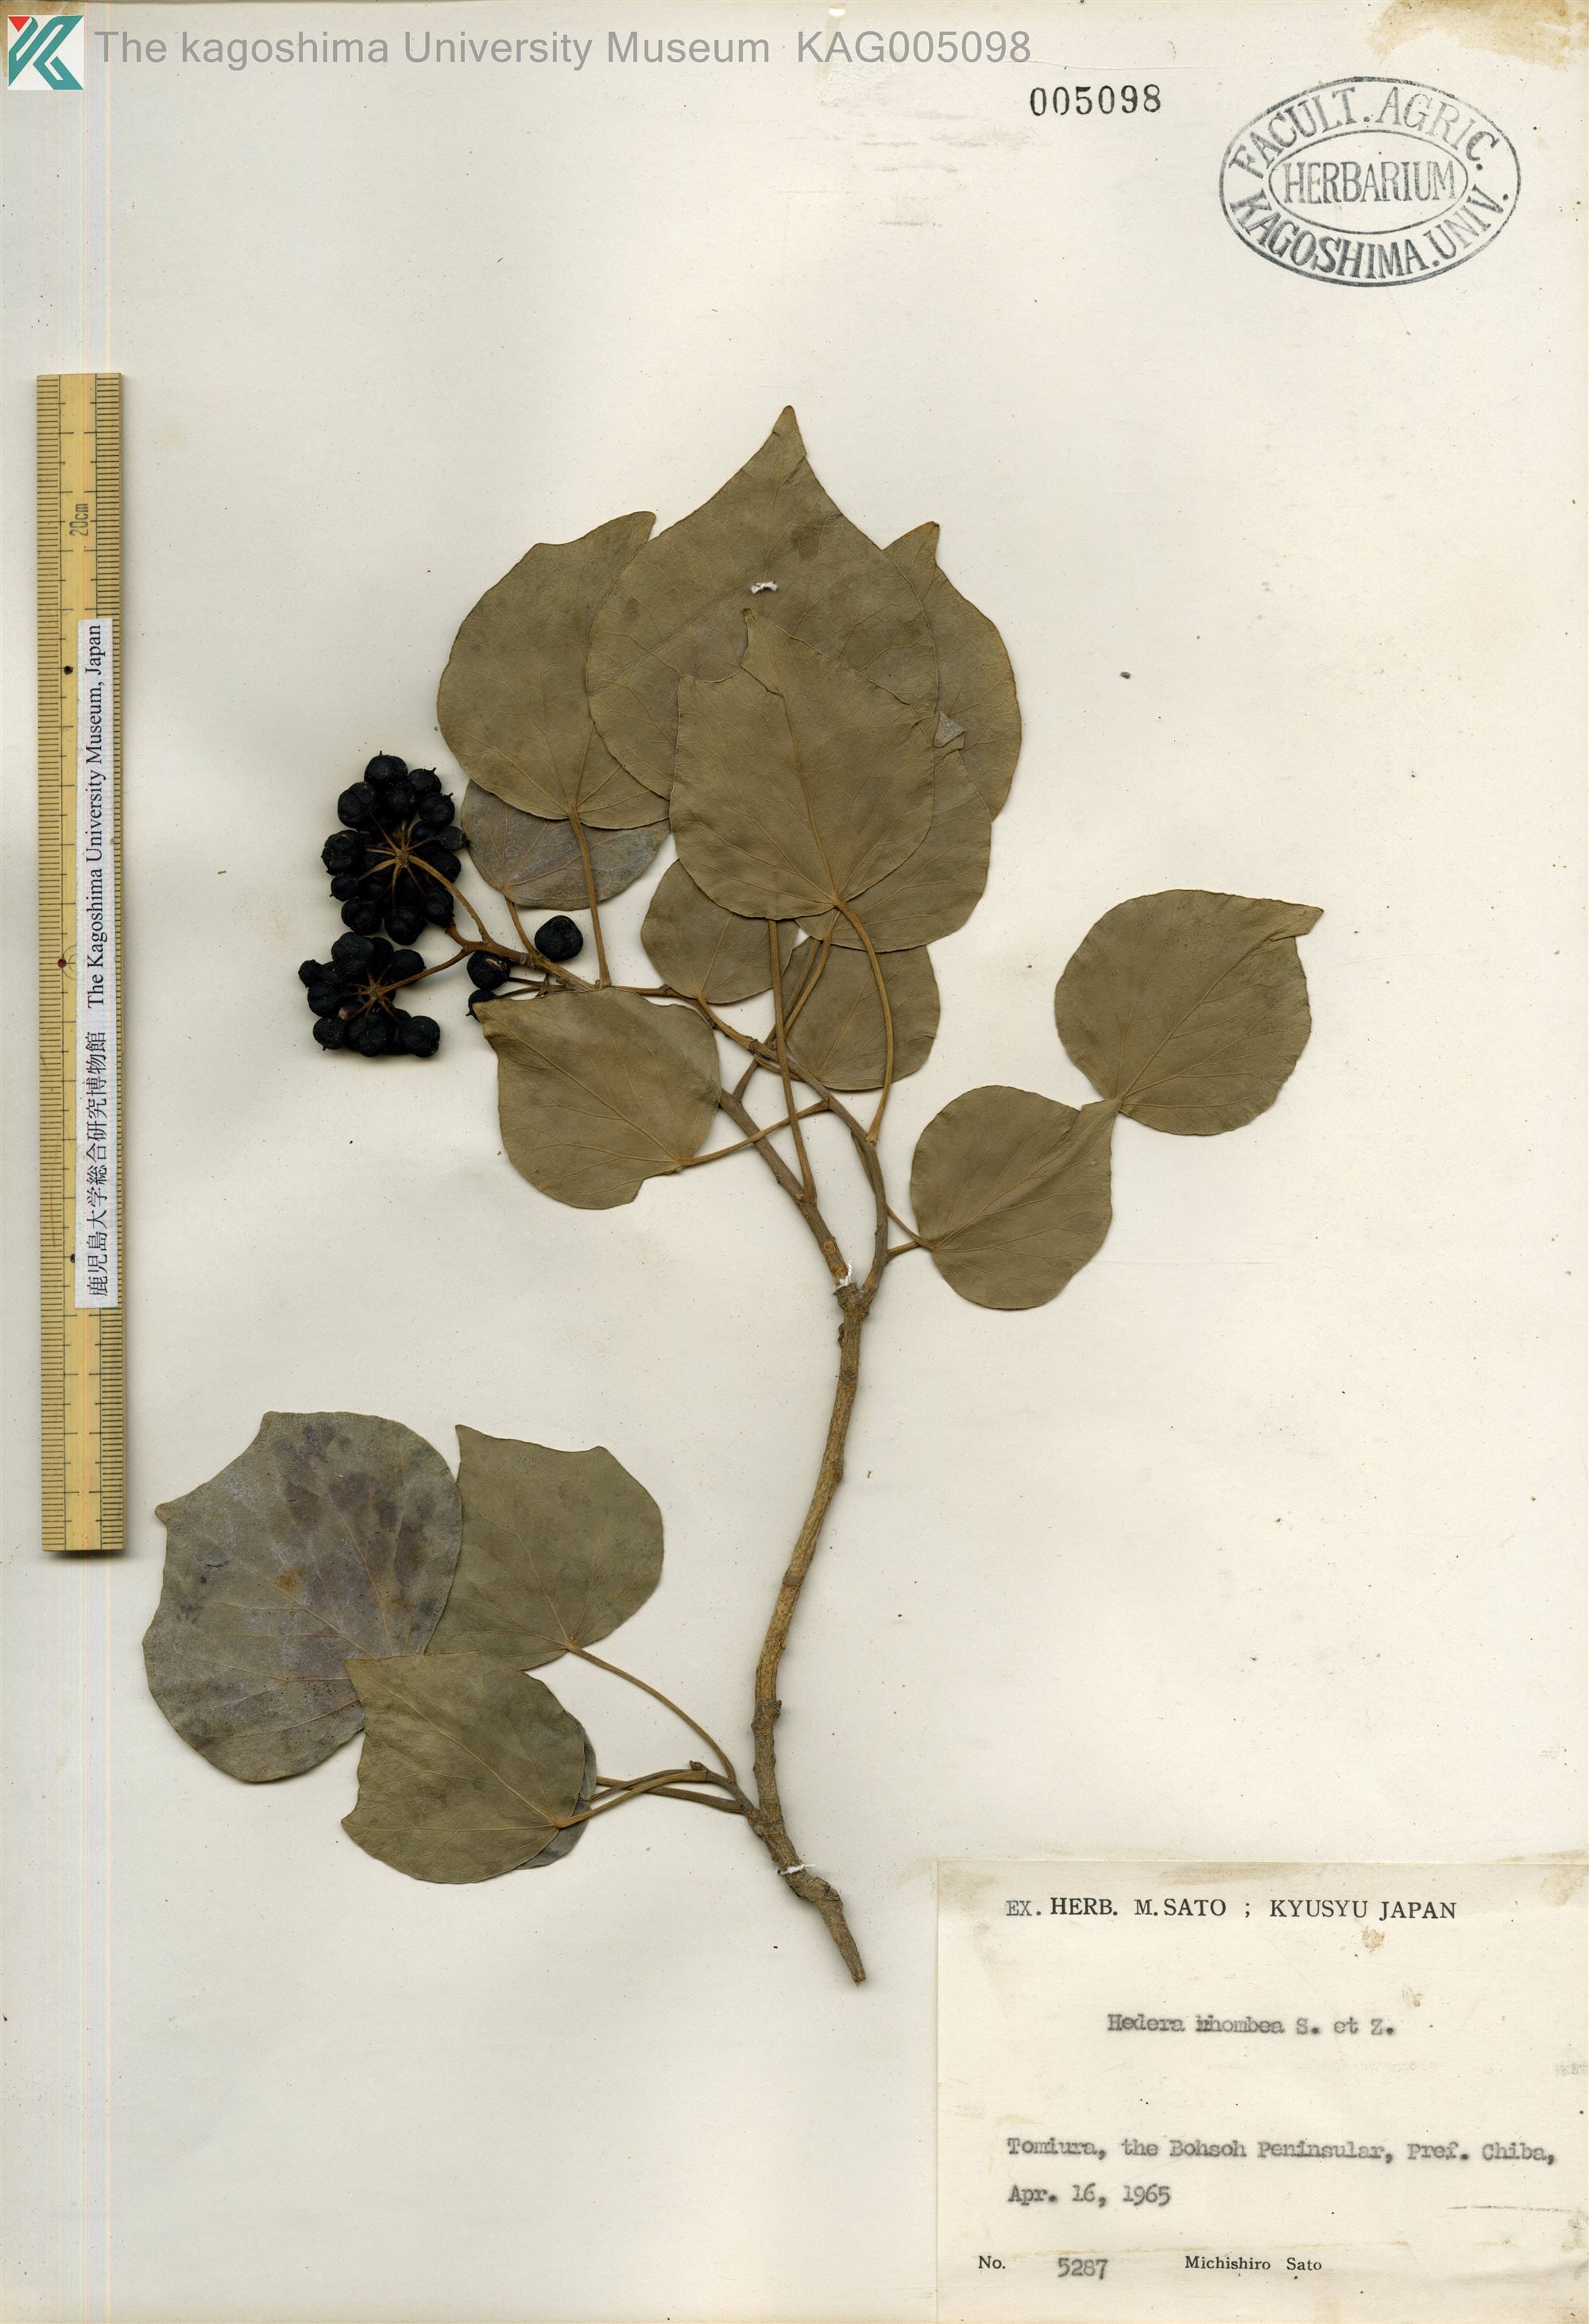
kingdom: Plantae
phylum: Tracheophyta
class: Magnoliopsida
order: Apiales
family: Araliaceae
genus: Hedera
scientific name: Hedera rhombea
